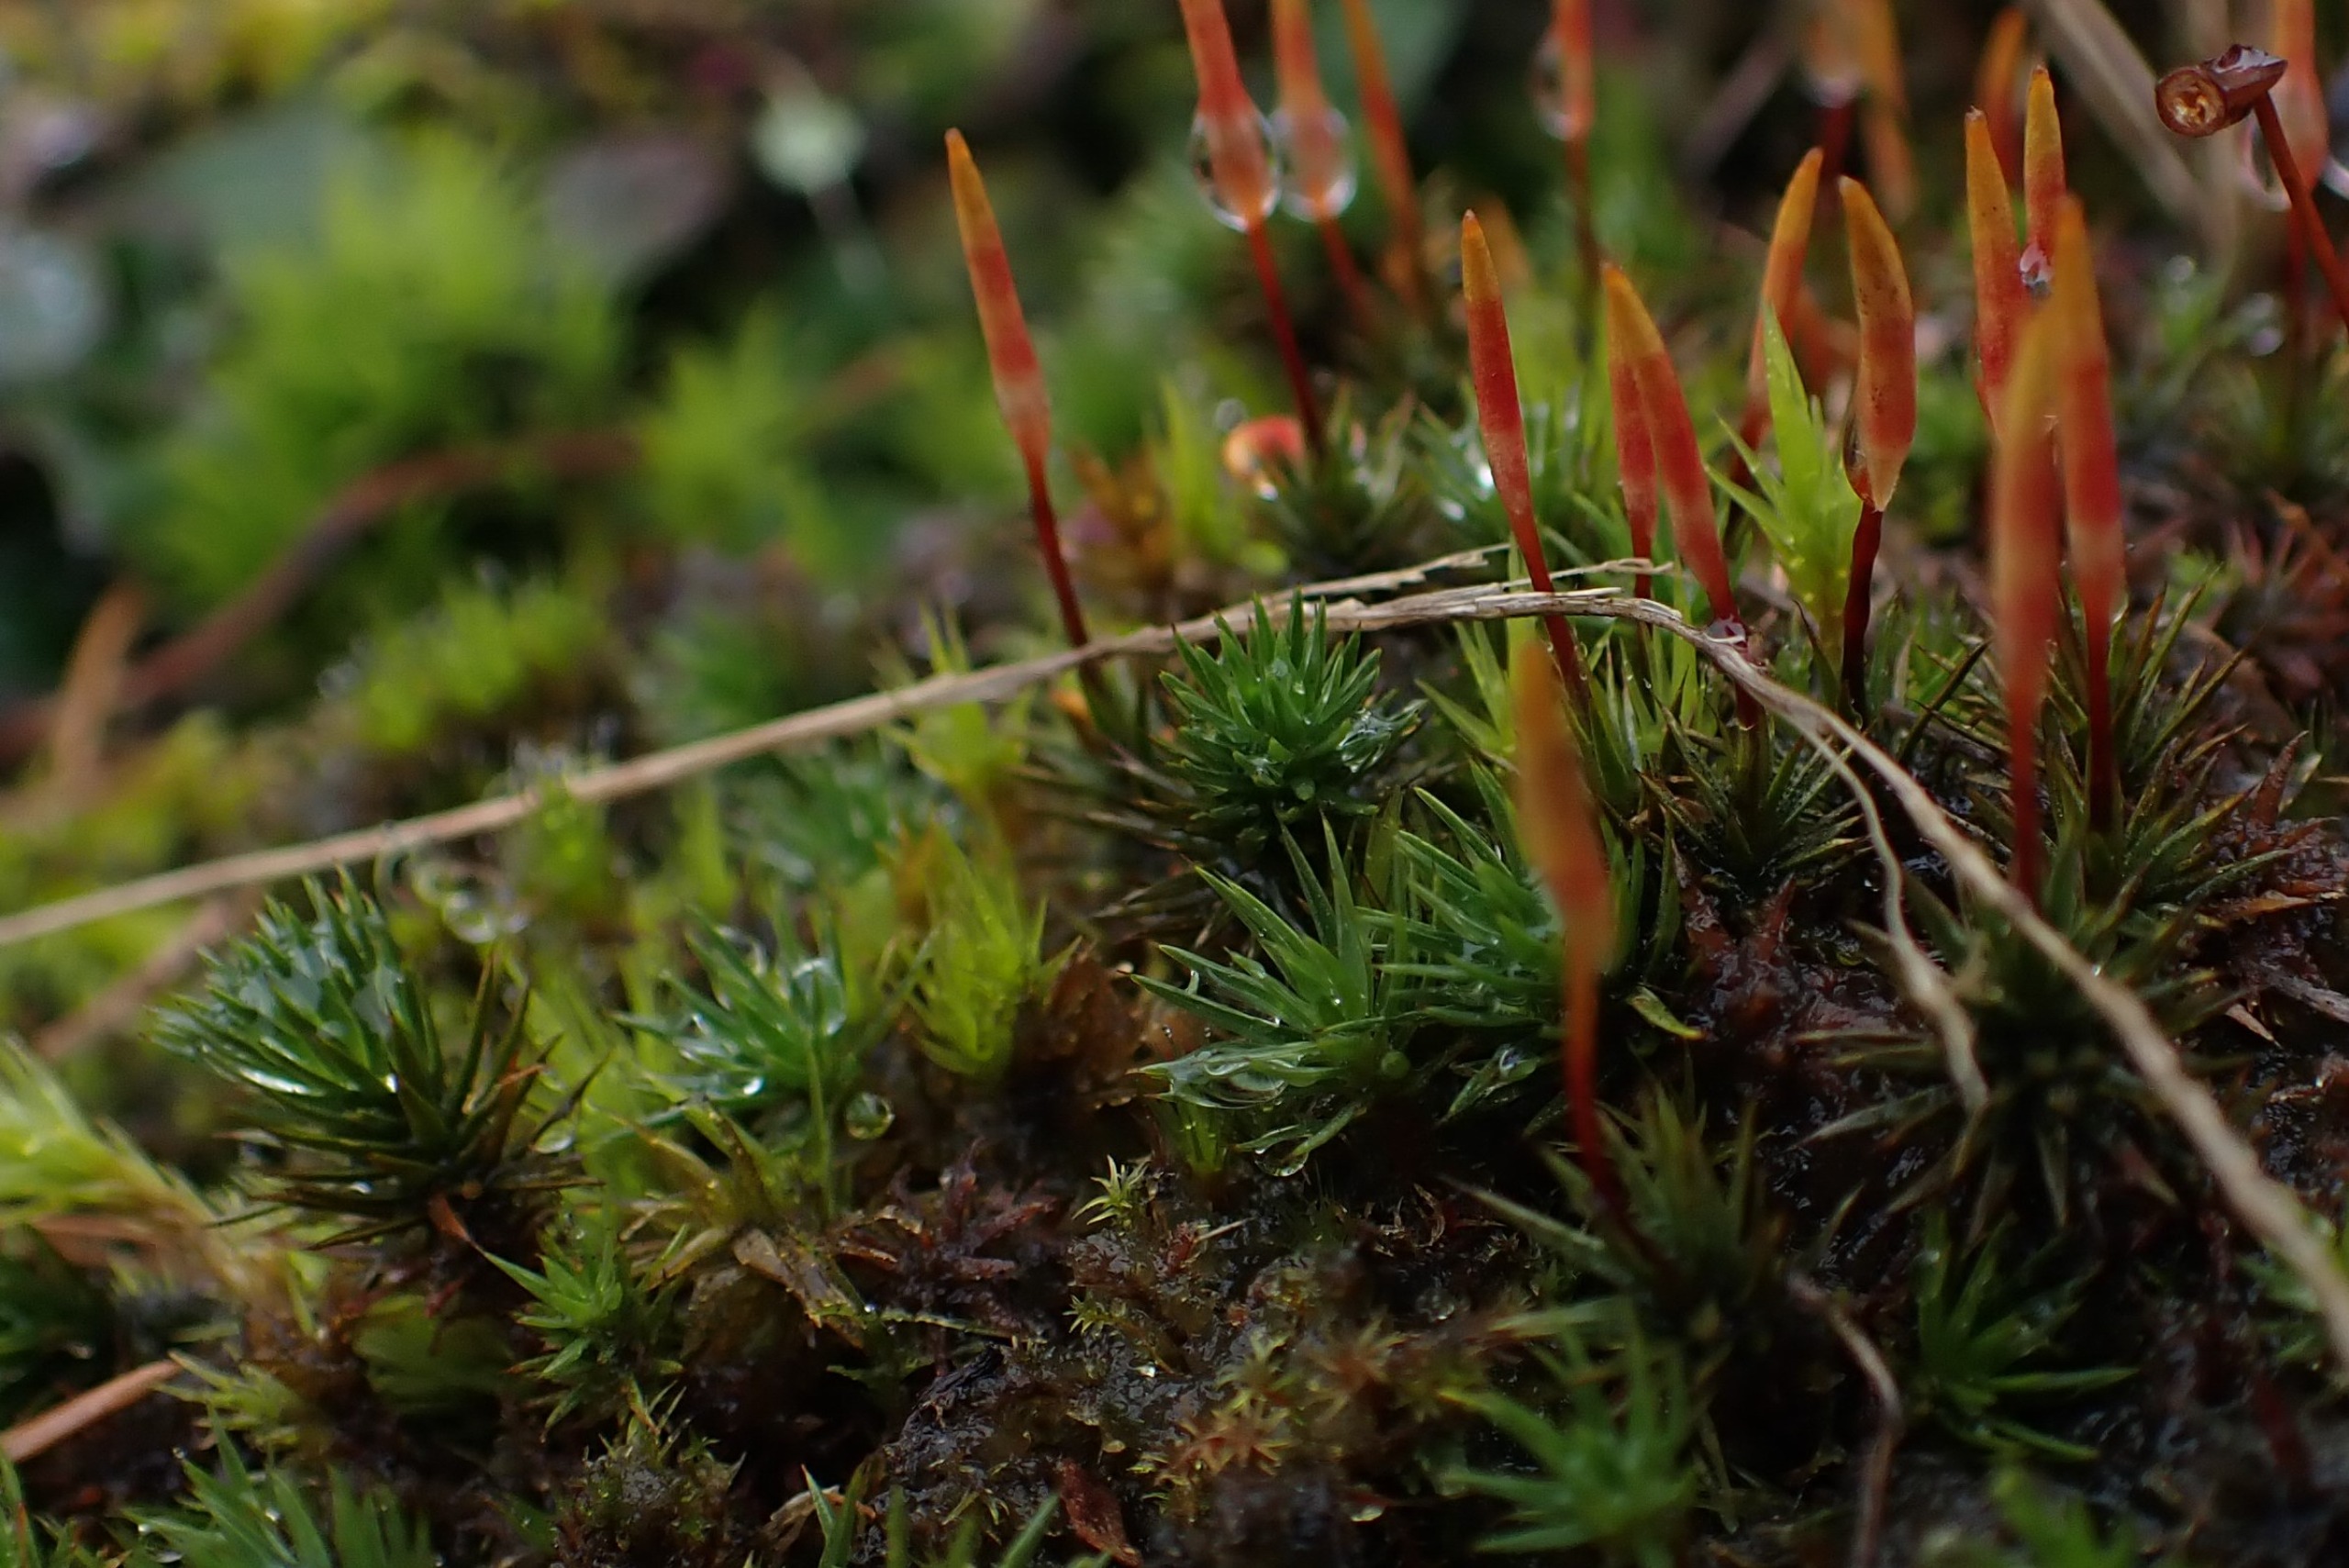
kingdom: Plantae
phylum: Bryophyta
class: Polytrichopsida
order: Polytrichales
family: Polytrichaceae
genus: Polytrichum
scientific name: Polytrichum juniperinum
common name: Ene-jomfruhår
